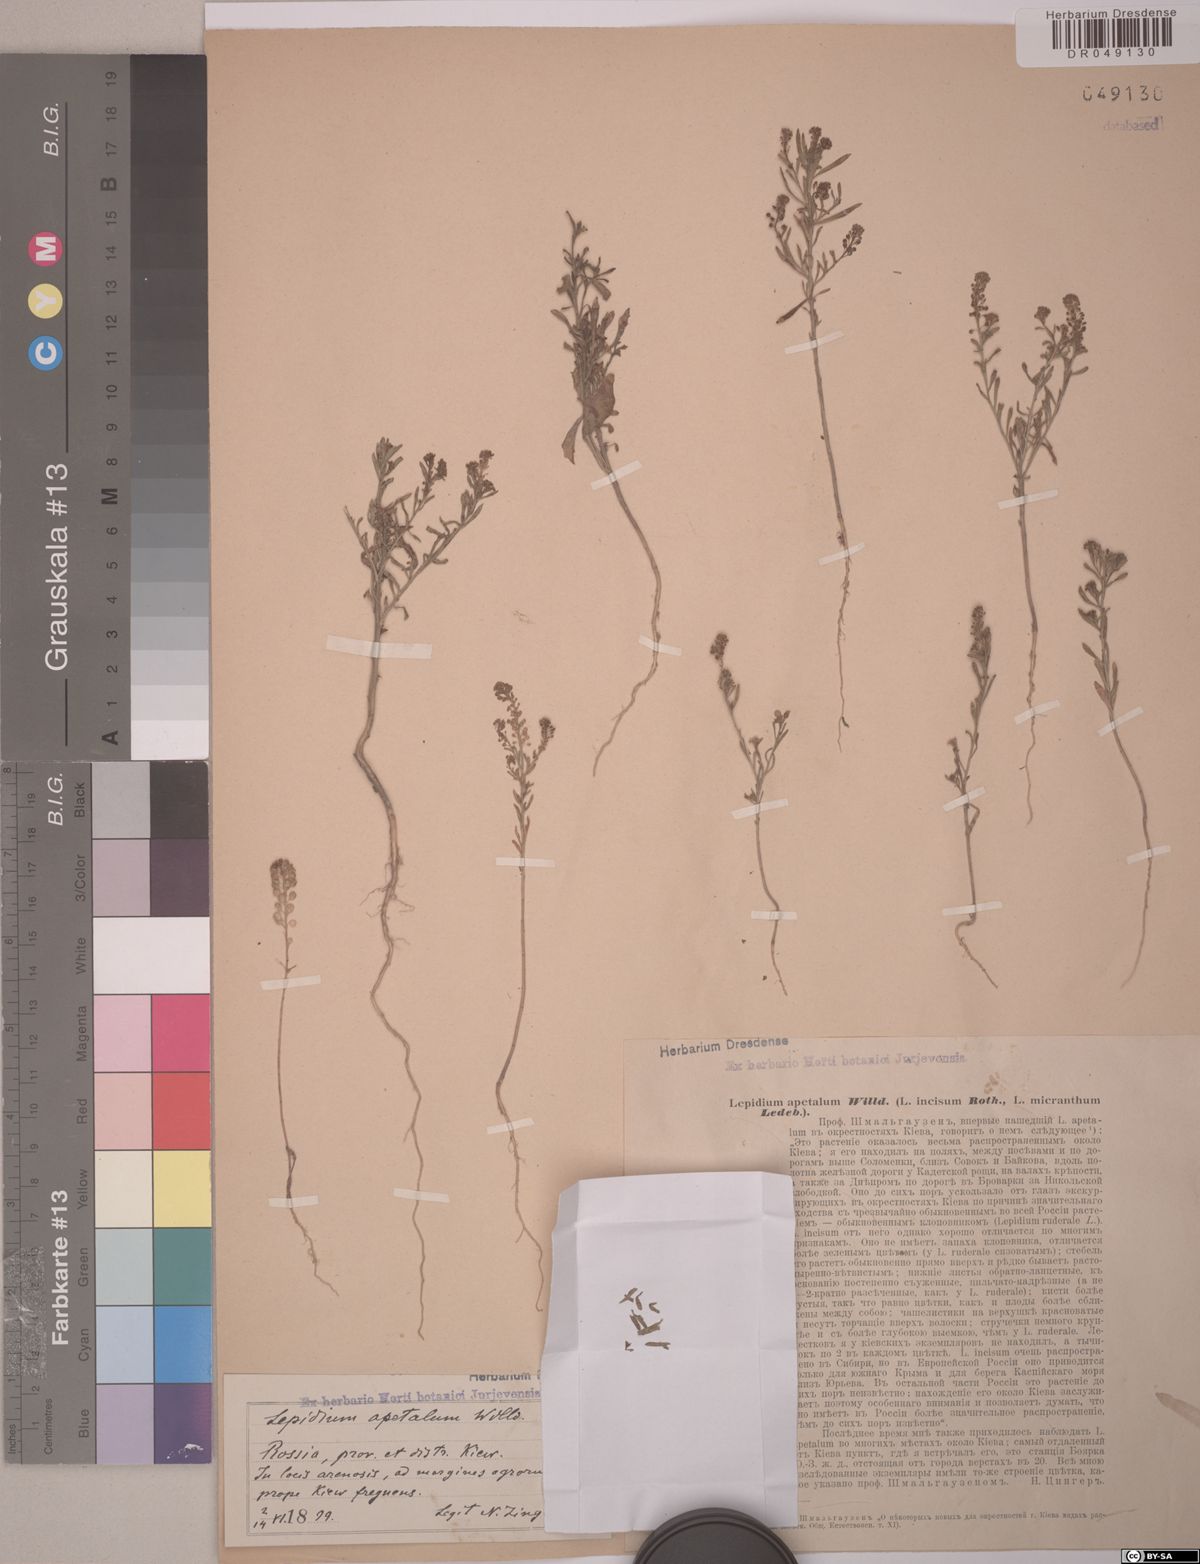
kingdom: Plantae
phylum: Tracheophyta
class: Magnoliopsida
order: Brassicales
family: Brassicaceae
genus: Lepidium
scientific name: Lepidium apetalum
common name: Pepperweed
